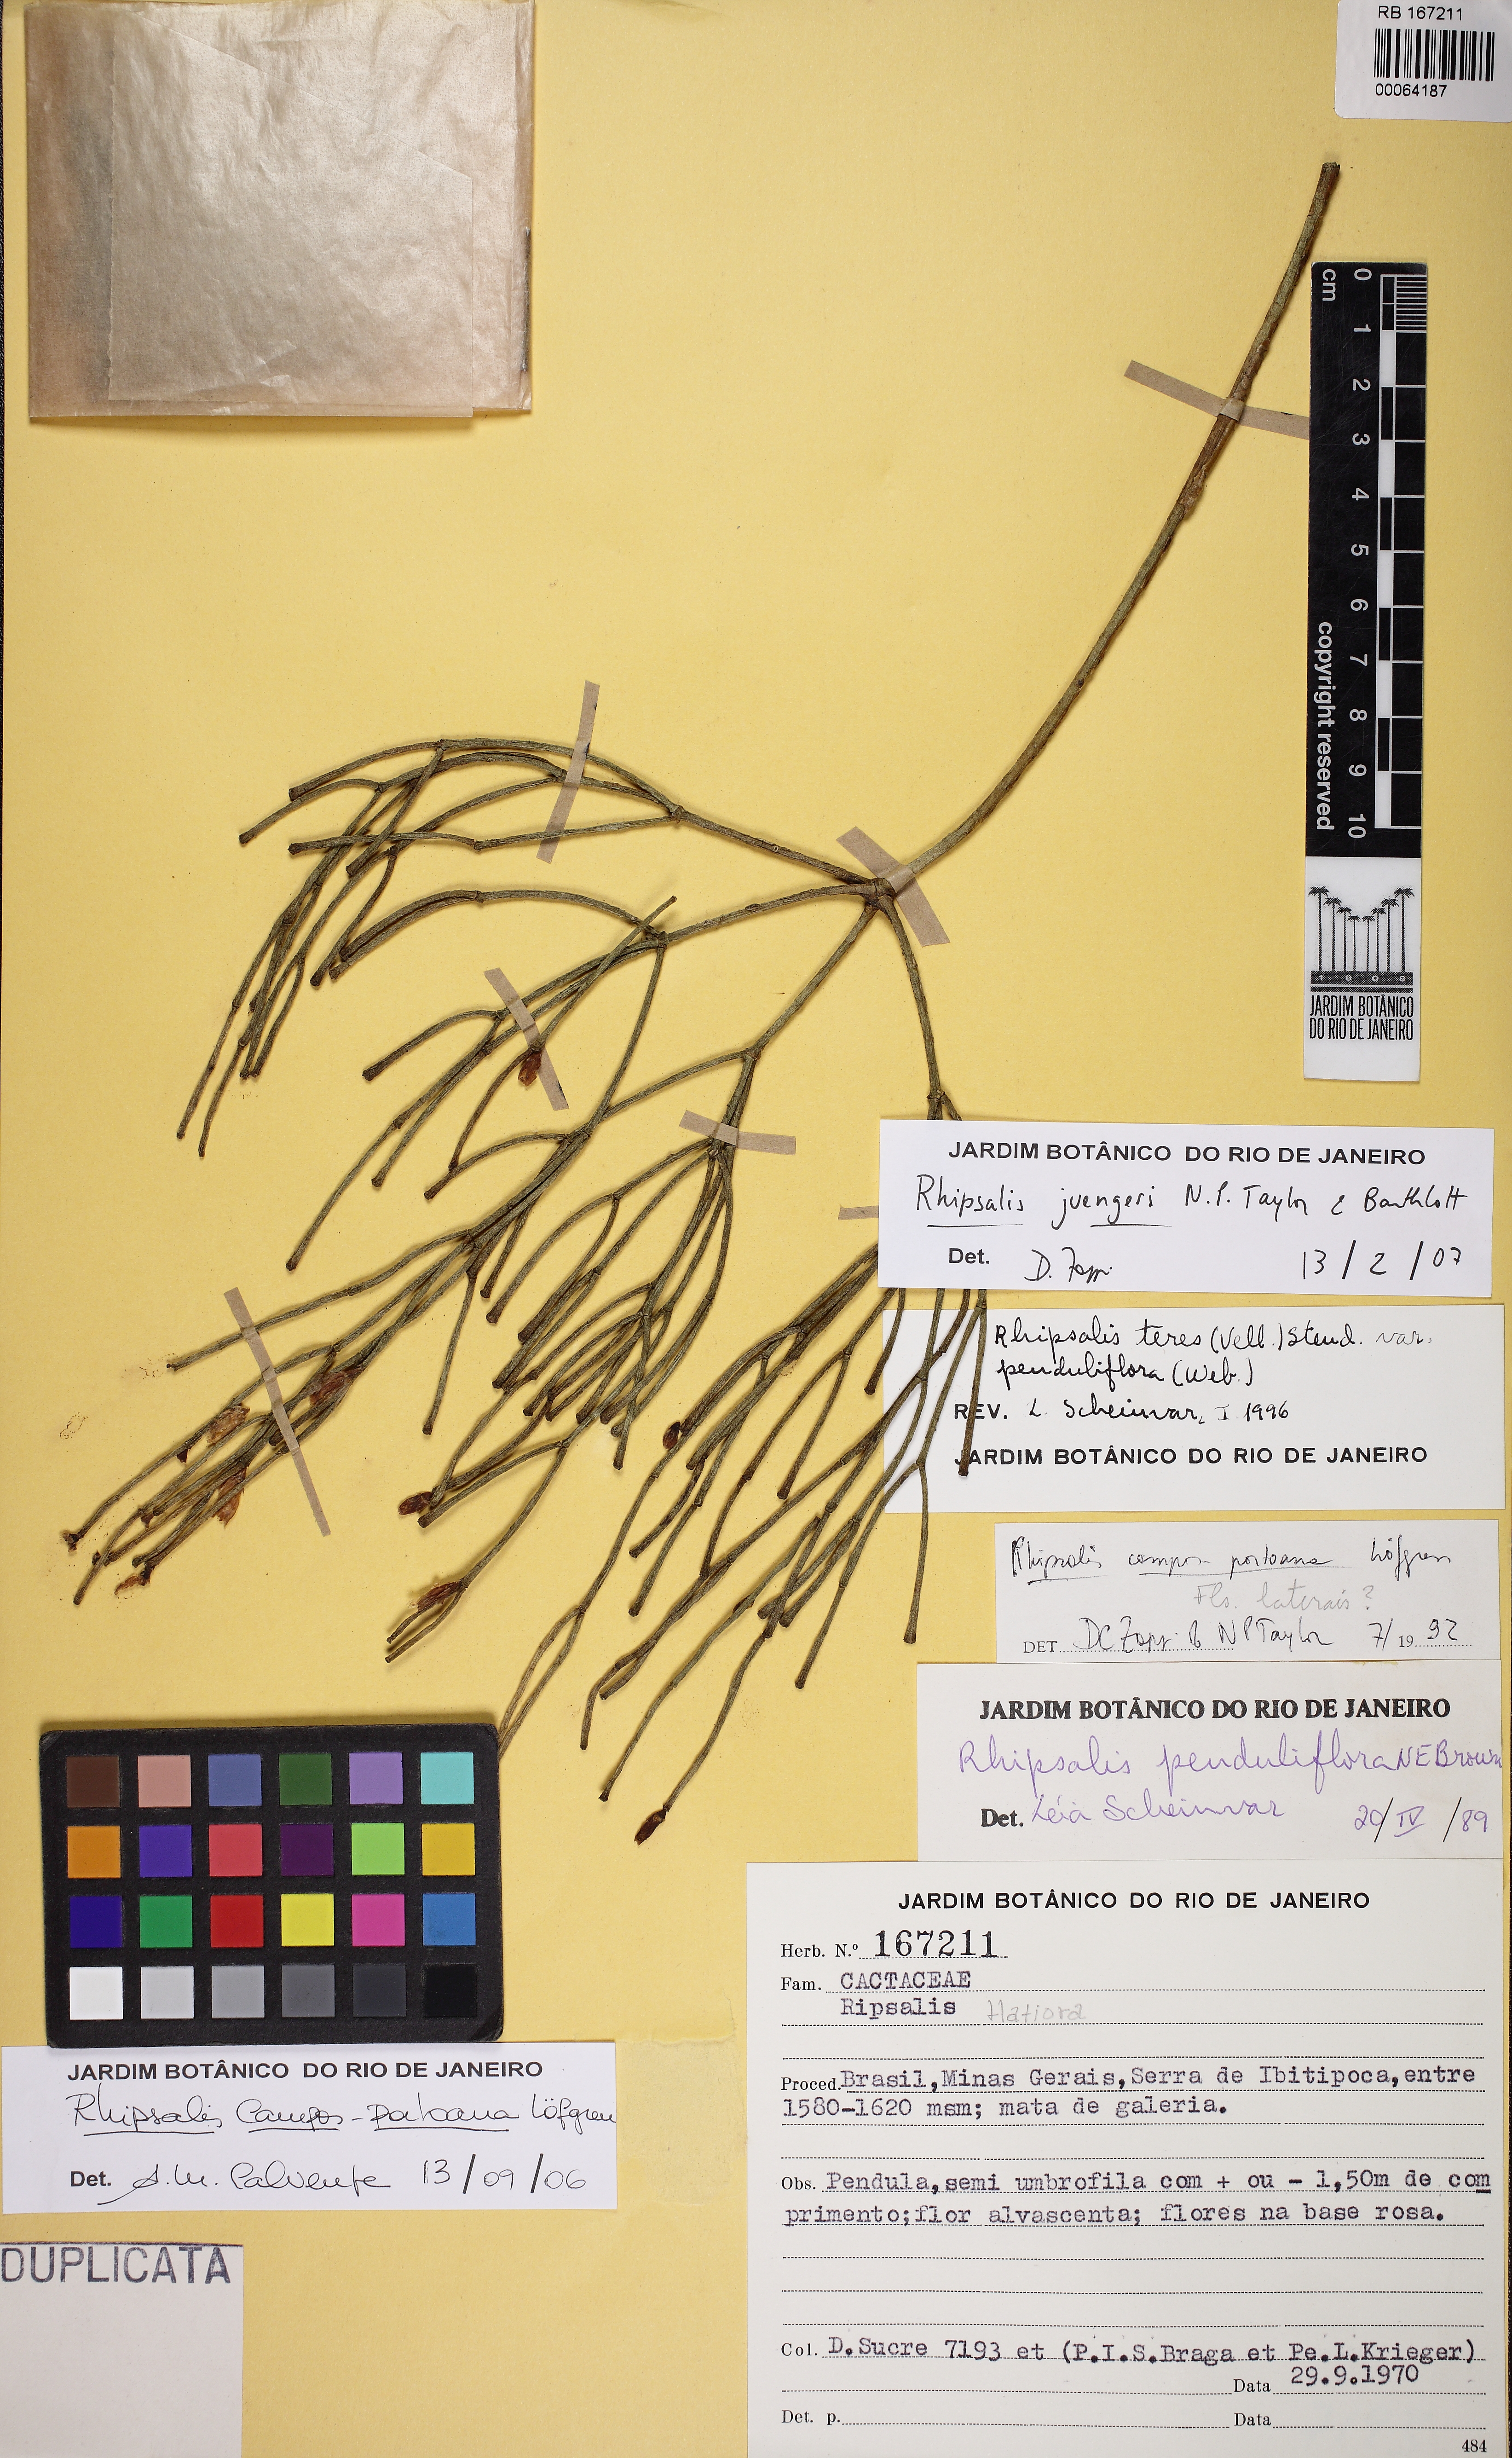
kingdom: Plantae
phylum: Tracheophyta
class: Magnoliopsida
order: Caryophyllales
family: Cactaceae
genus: Rhipsalis
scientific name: Rhipsalis juengeri
